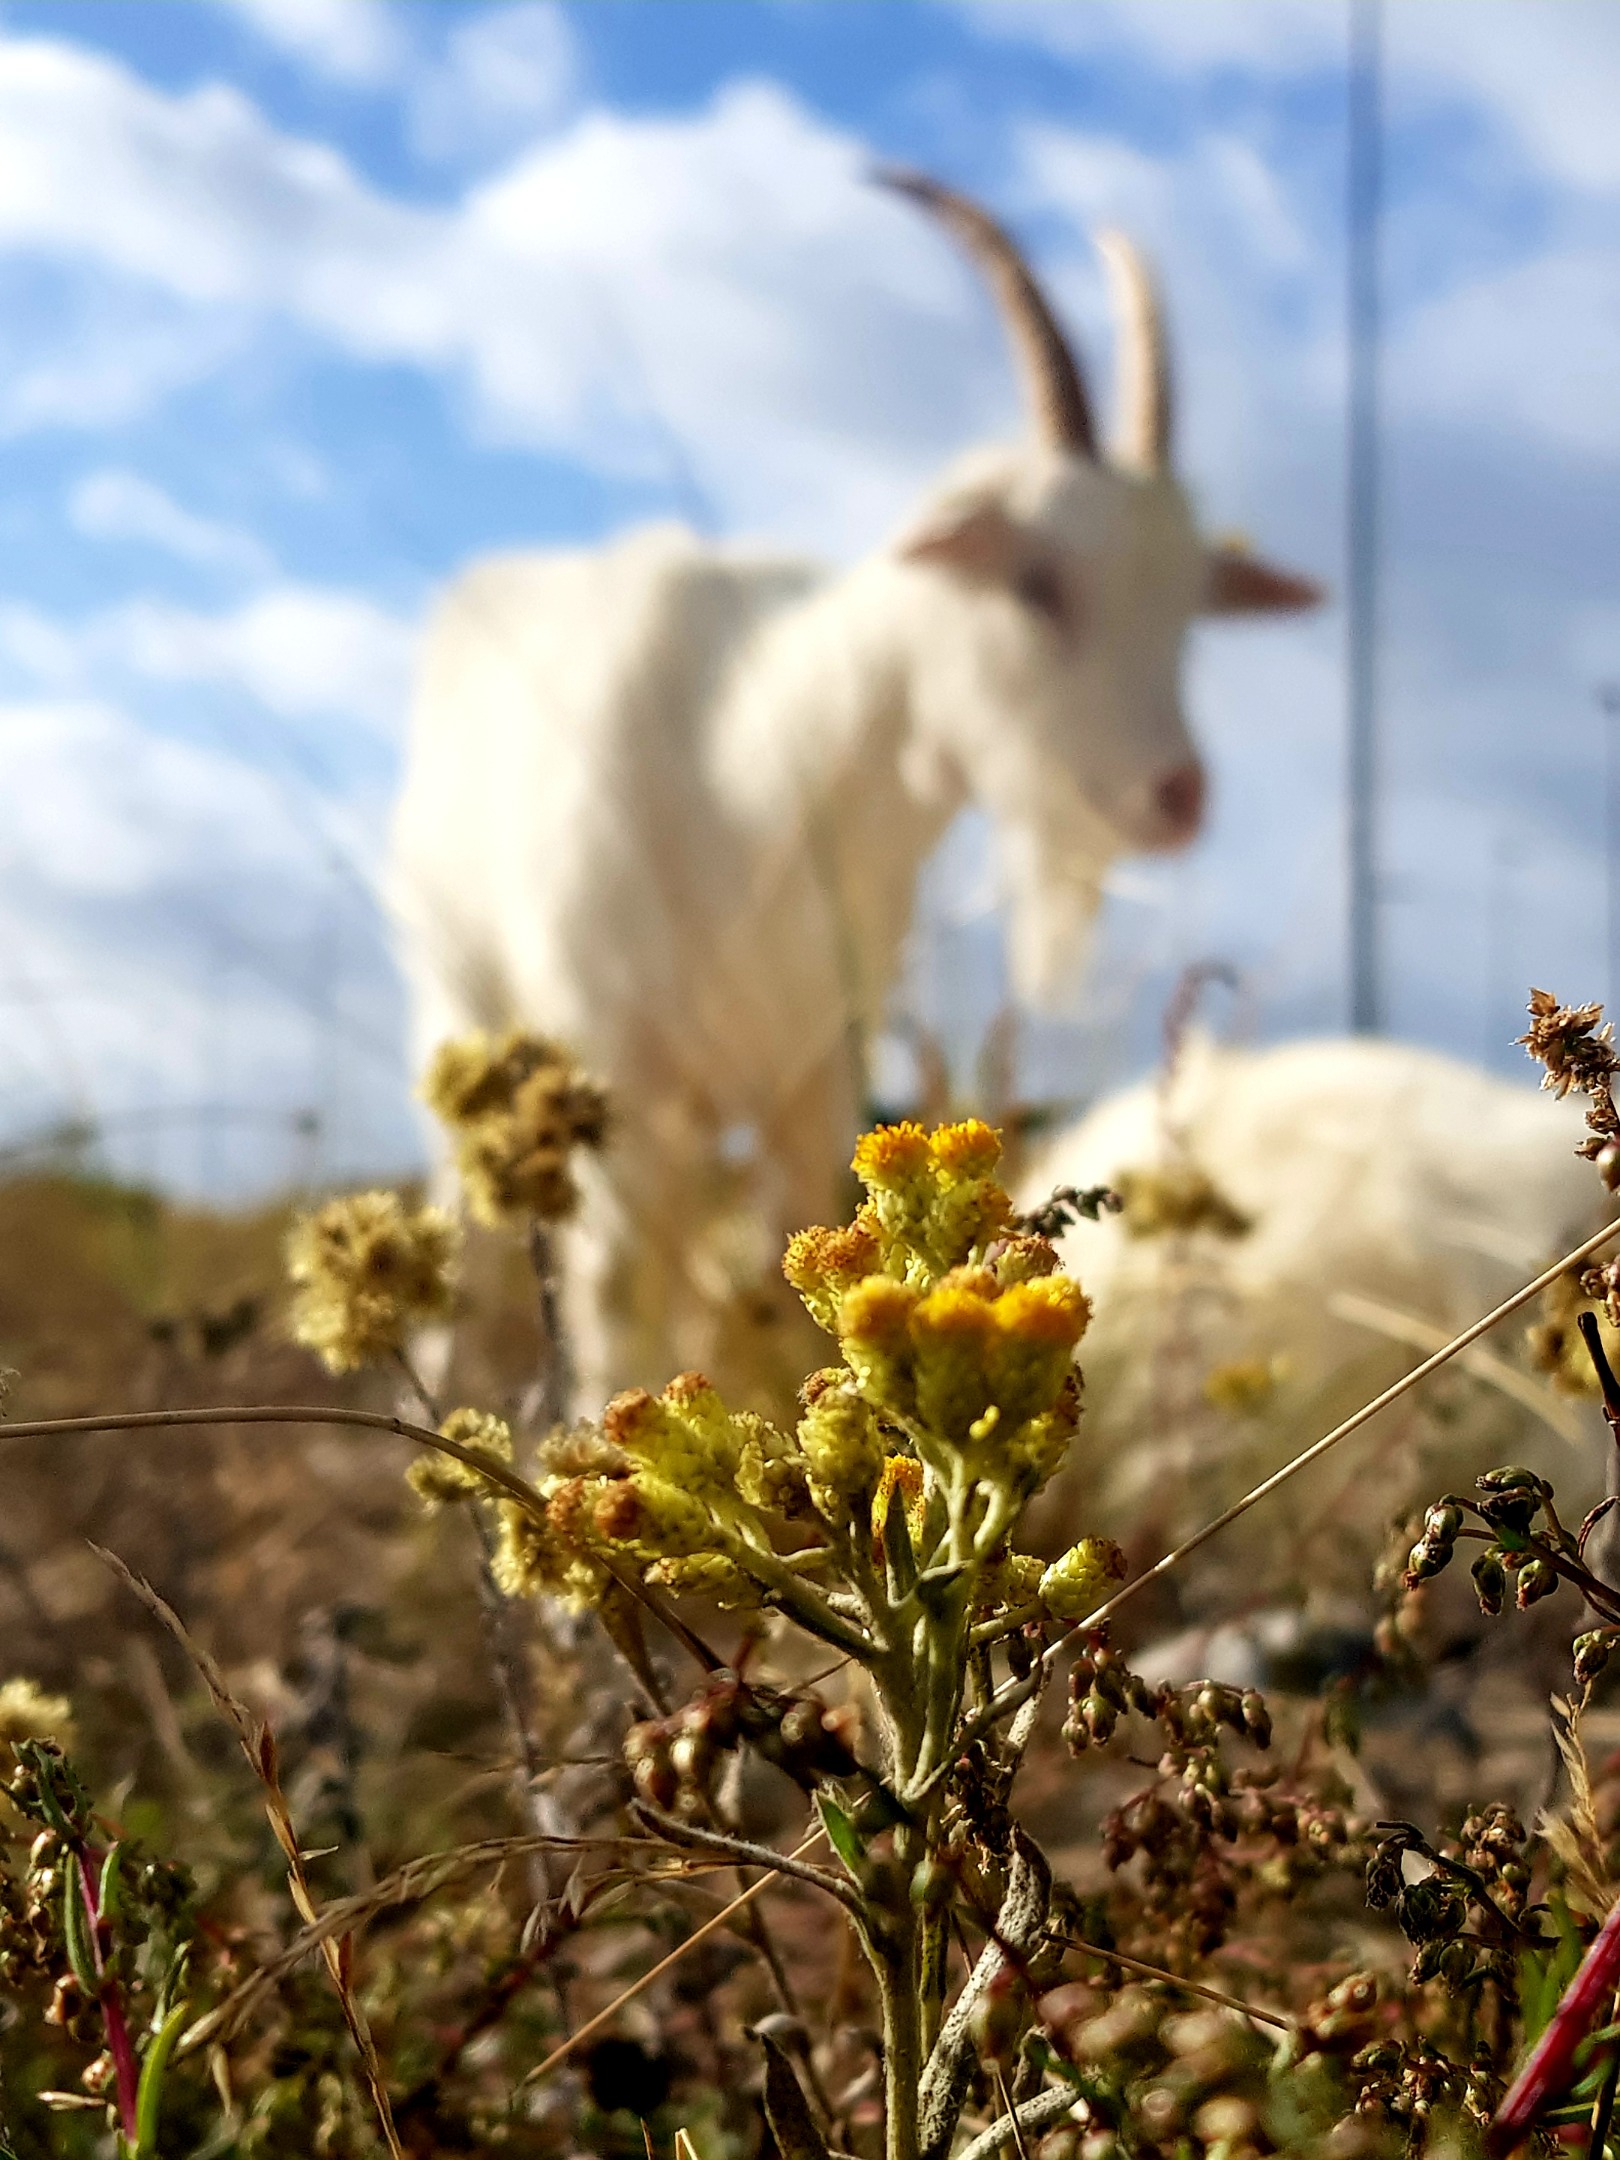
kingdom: Plantae
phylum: Tracheophyta
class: Magnoliopsida
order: Asterales
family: Asteraceae
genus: Helichrysum
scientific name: Helichrysum arenarium
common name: Gul evighedsblomst
